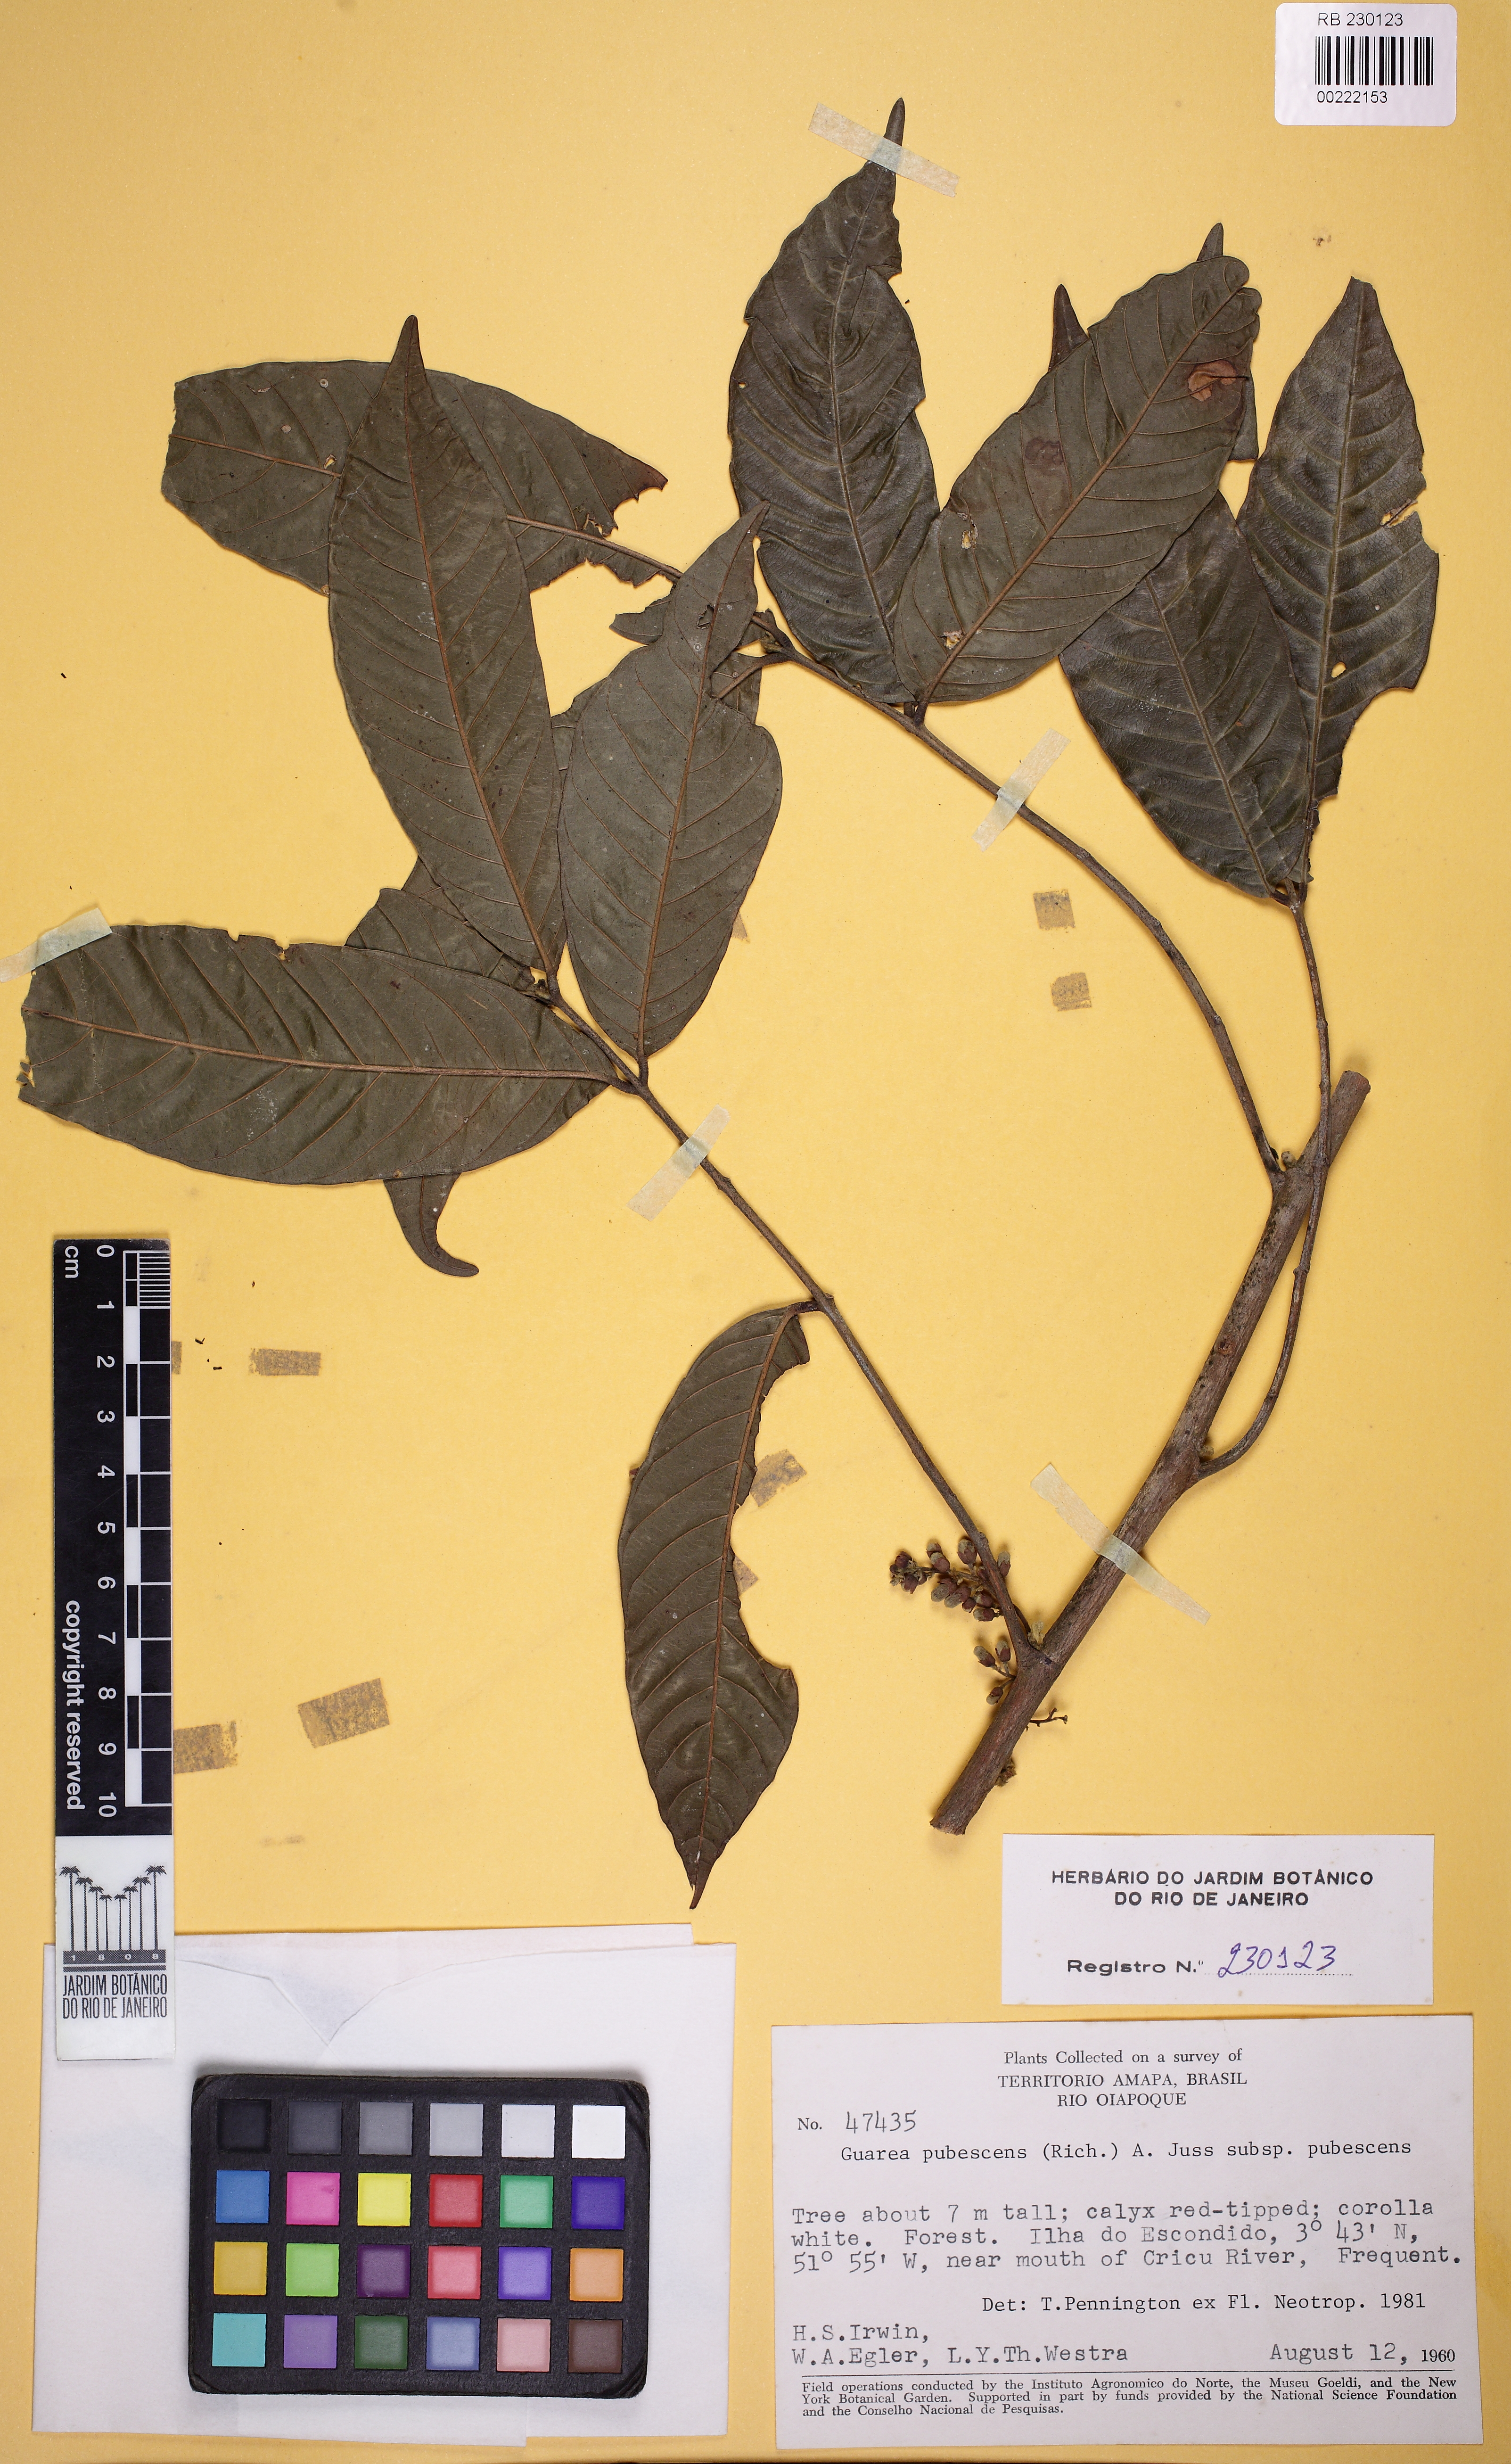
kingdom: Plantae
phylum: Tracheophyta
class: Magnoliopsida
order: Sapindales
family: Meliaceae
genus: Guarea
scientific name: Guarea pubescens
